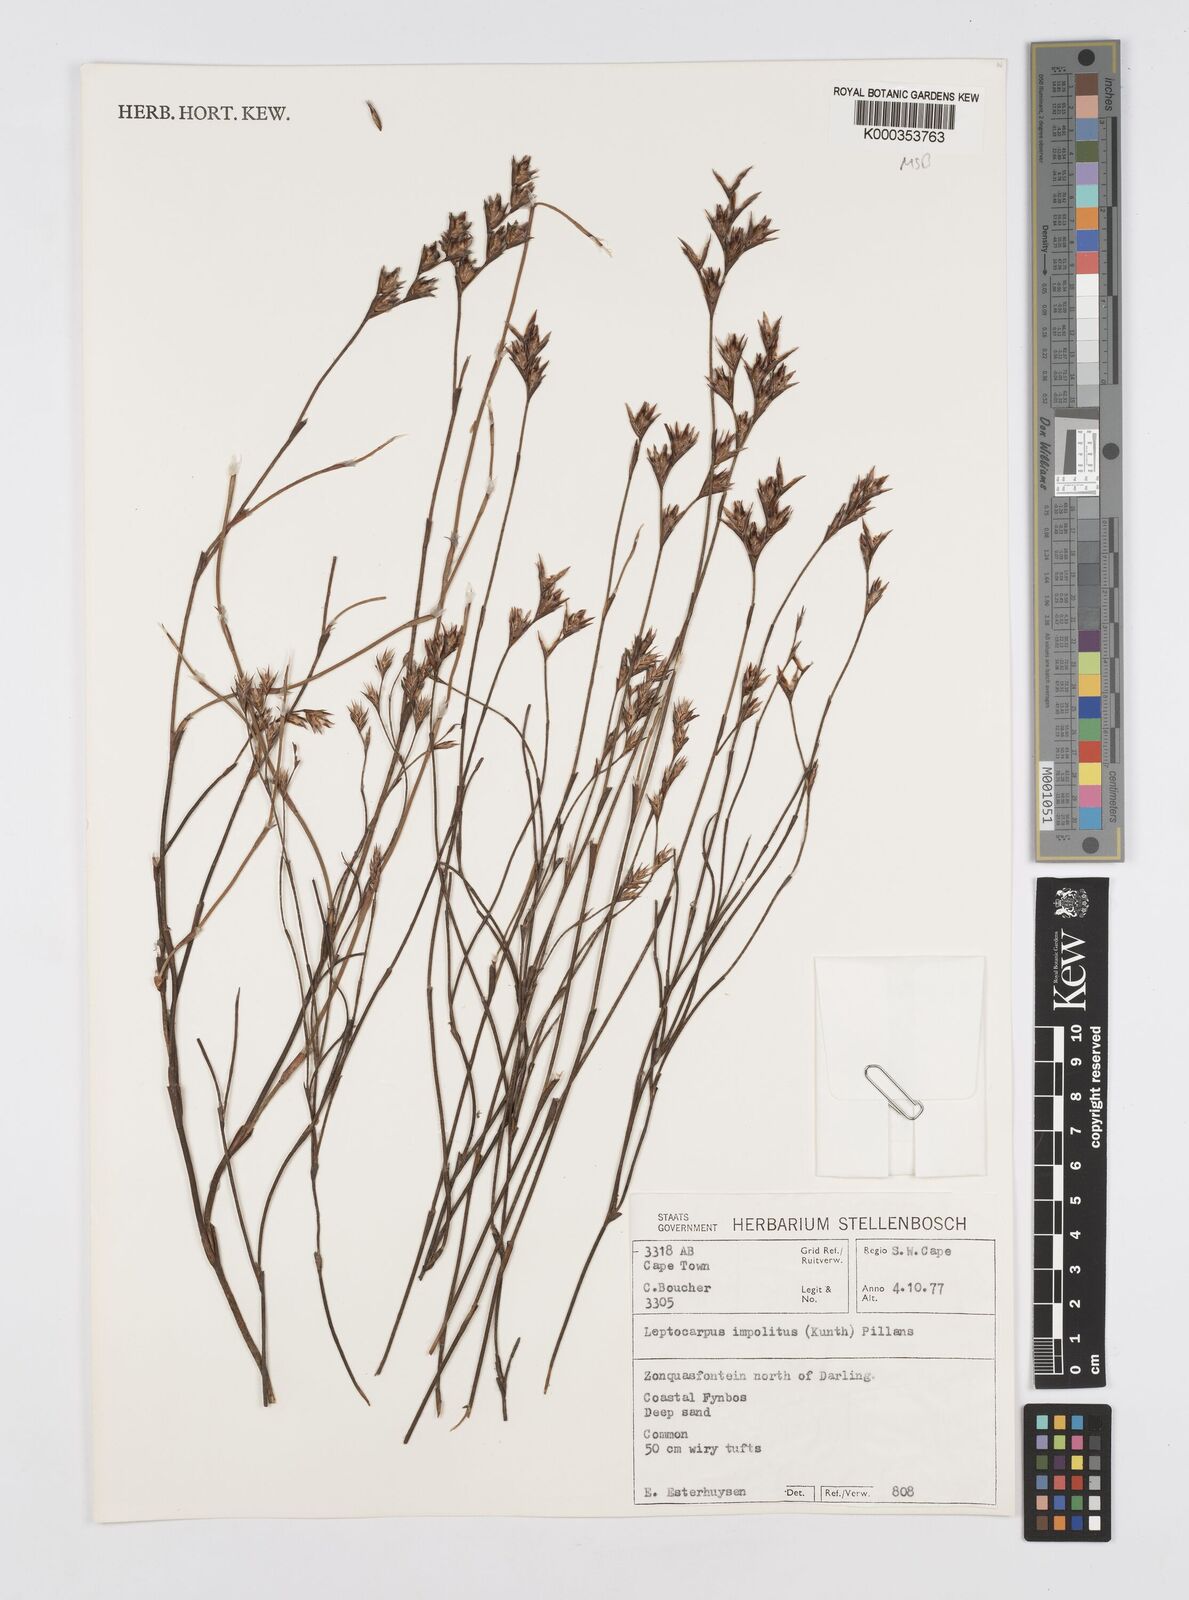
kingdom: Plantae
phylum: Tracheophyta
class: Liliopsida
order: Poales
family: Restionaceae
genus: Restio
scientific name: Restio impolitus
